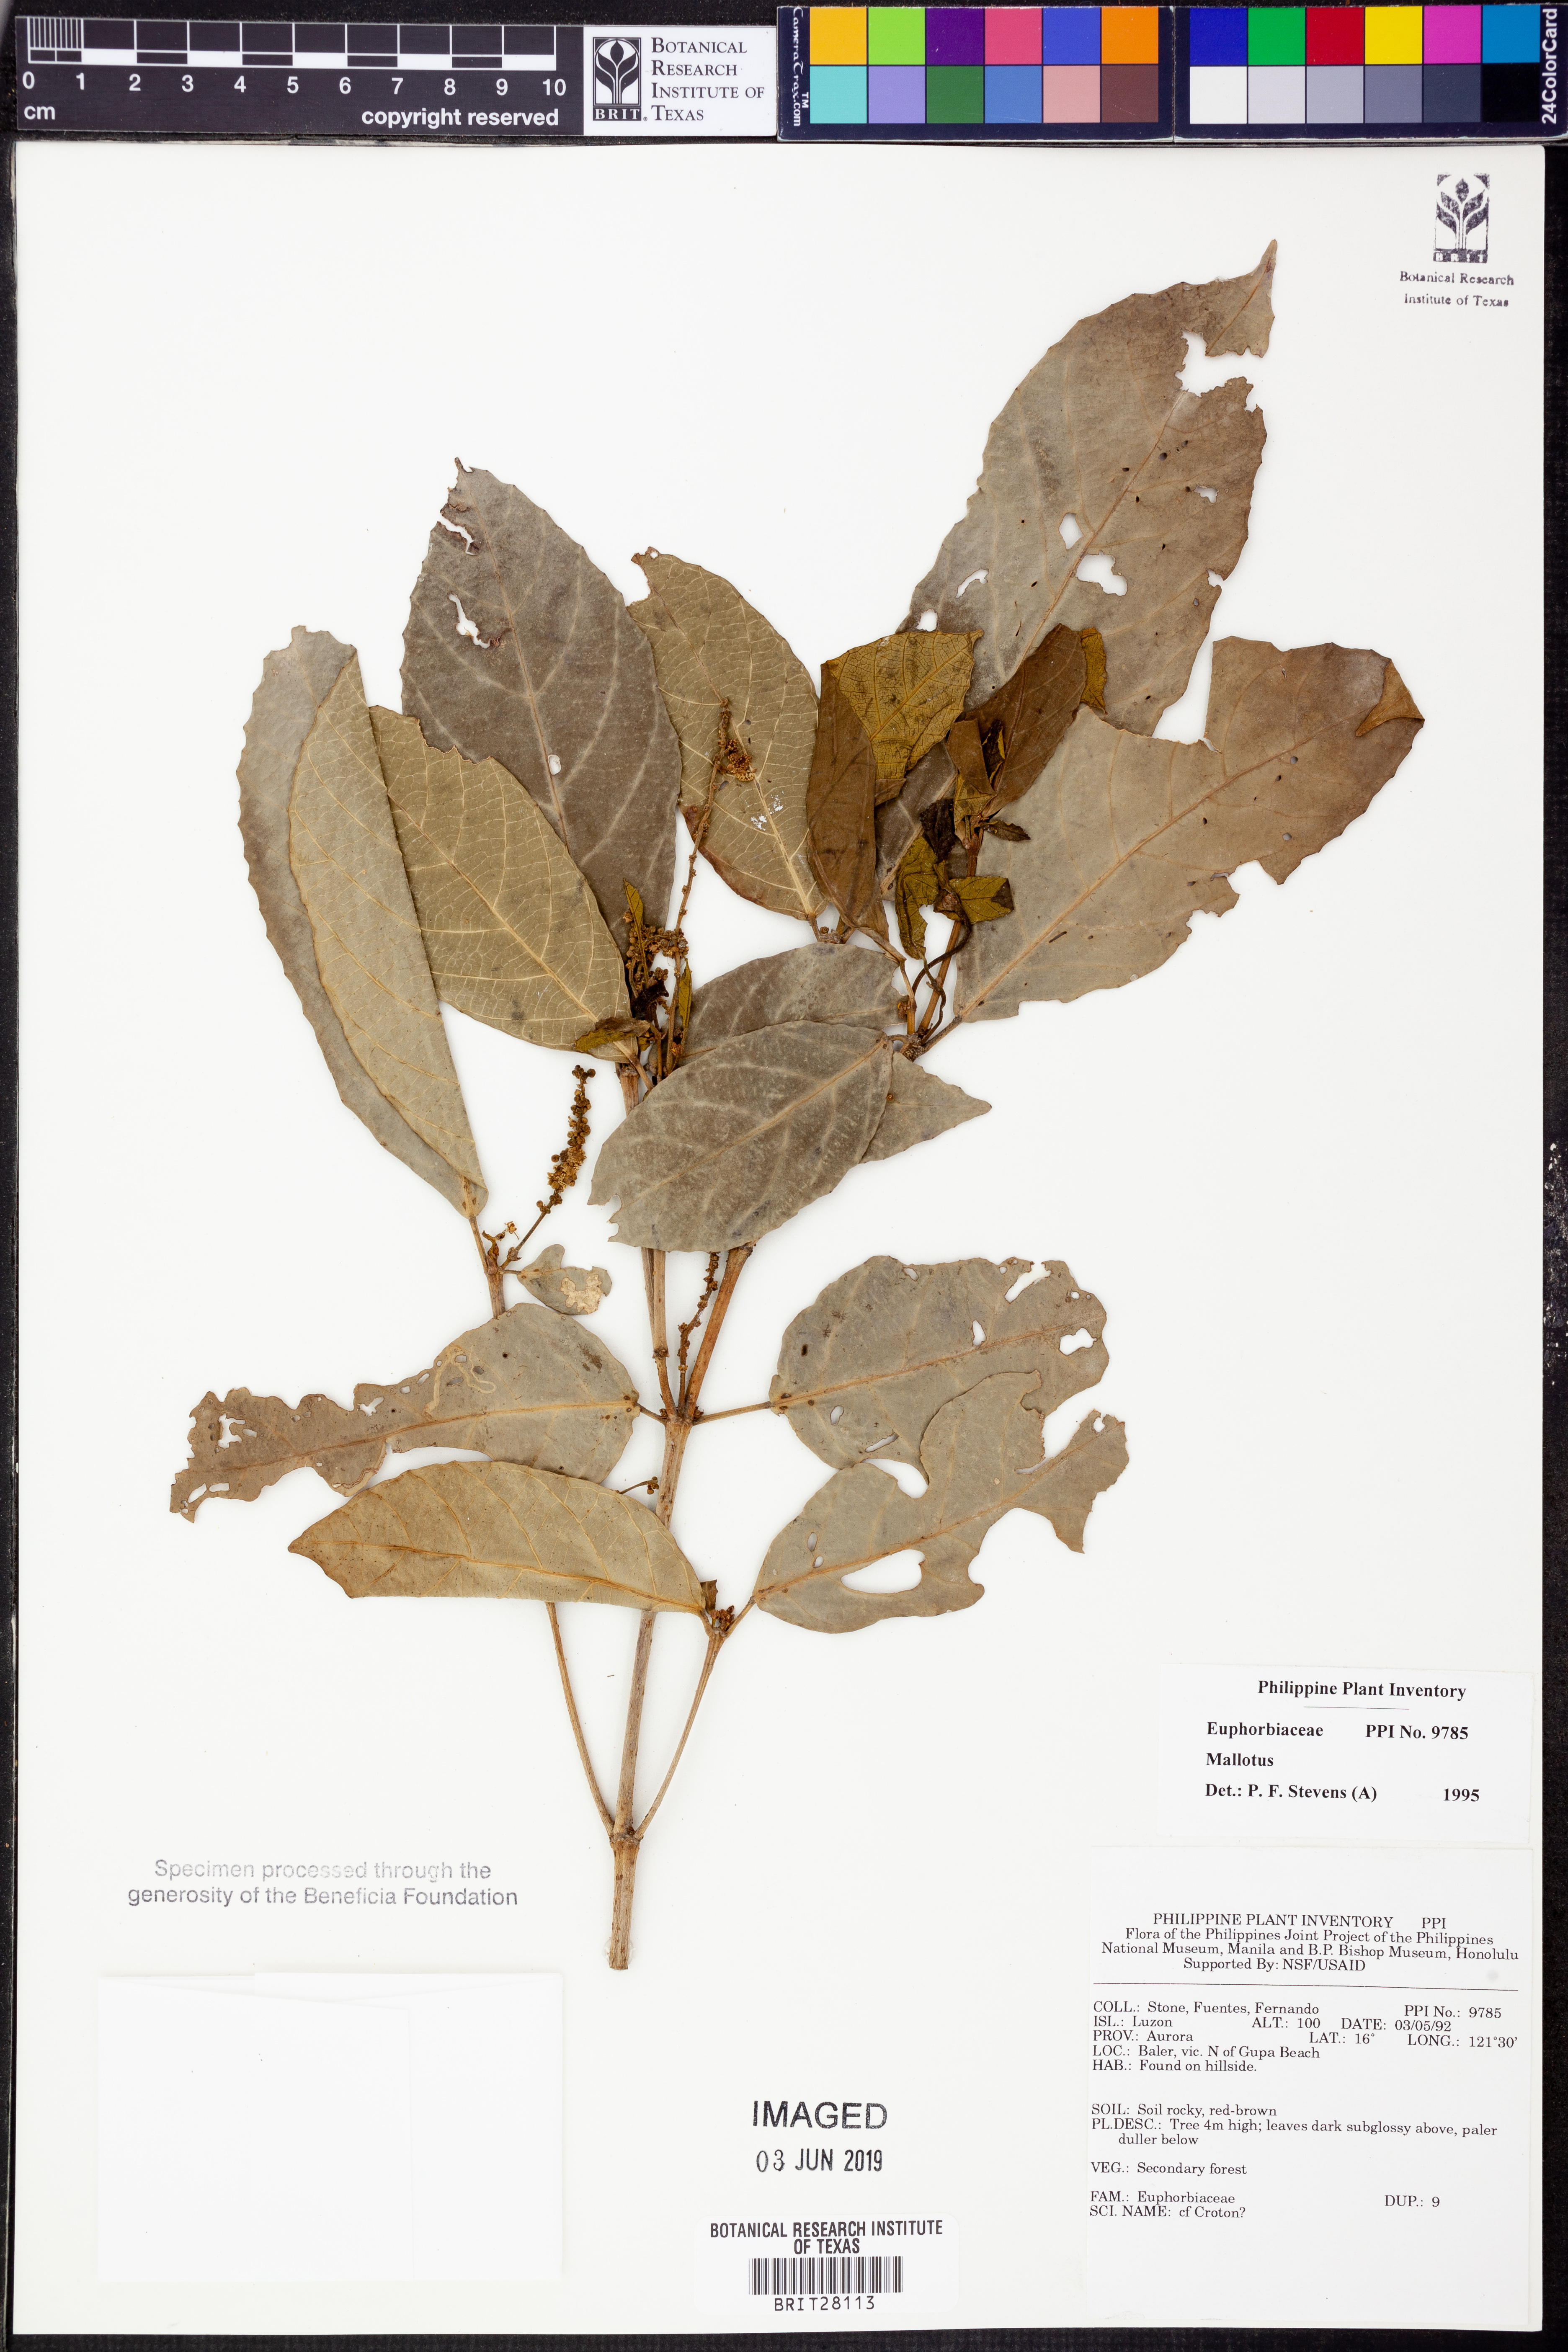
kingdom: Plantae
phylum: Tracheophyta
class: Magnoliopsida
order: Malpighiales
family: Euphorbiaceae
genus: Mallotus
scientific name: Mallotus
